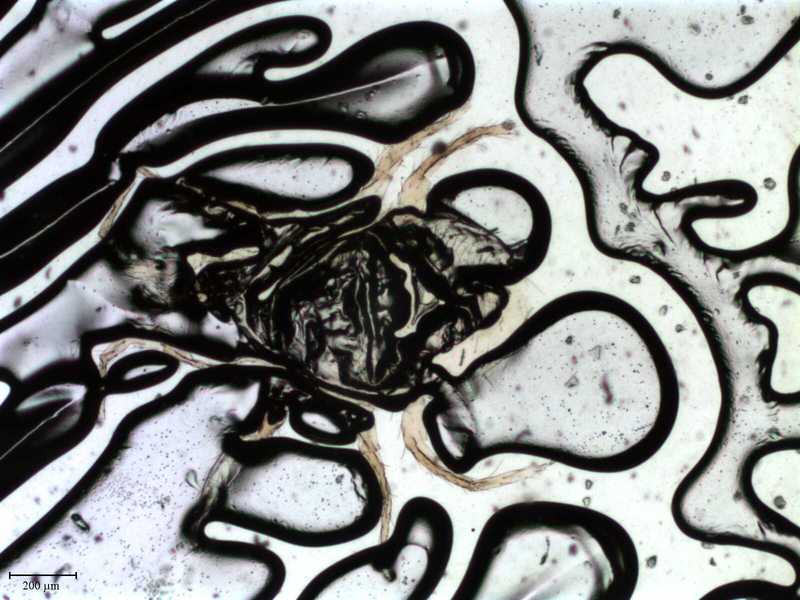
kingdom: Animalia
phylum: Arthropoda
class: Arachnida
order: Mesostigmata
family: Laelapidae
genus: Hypoaspis
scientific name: Hypoaspis
